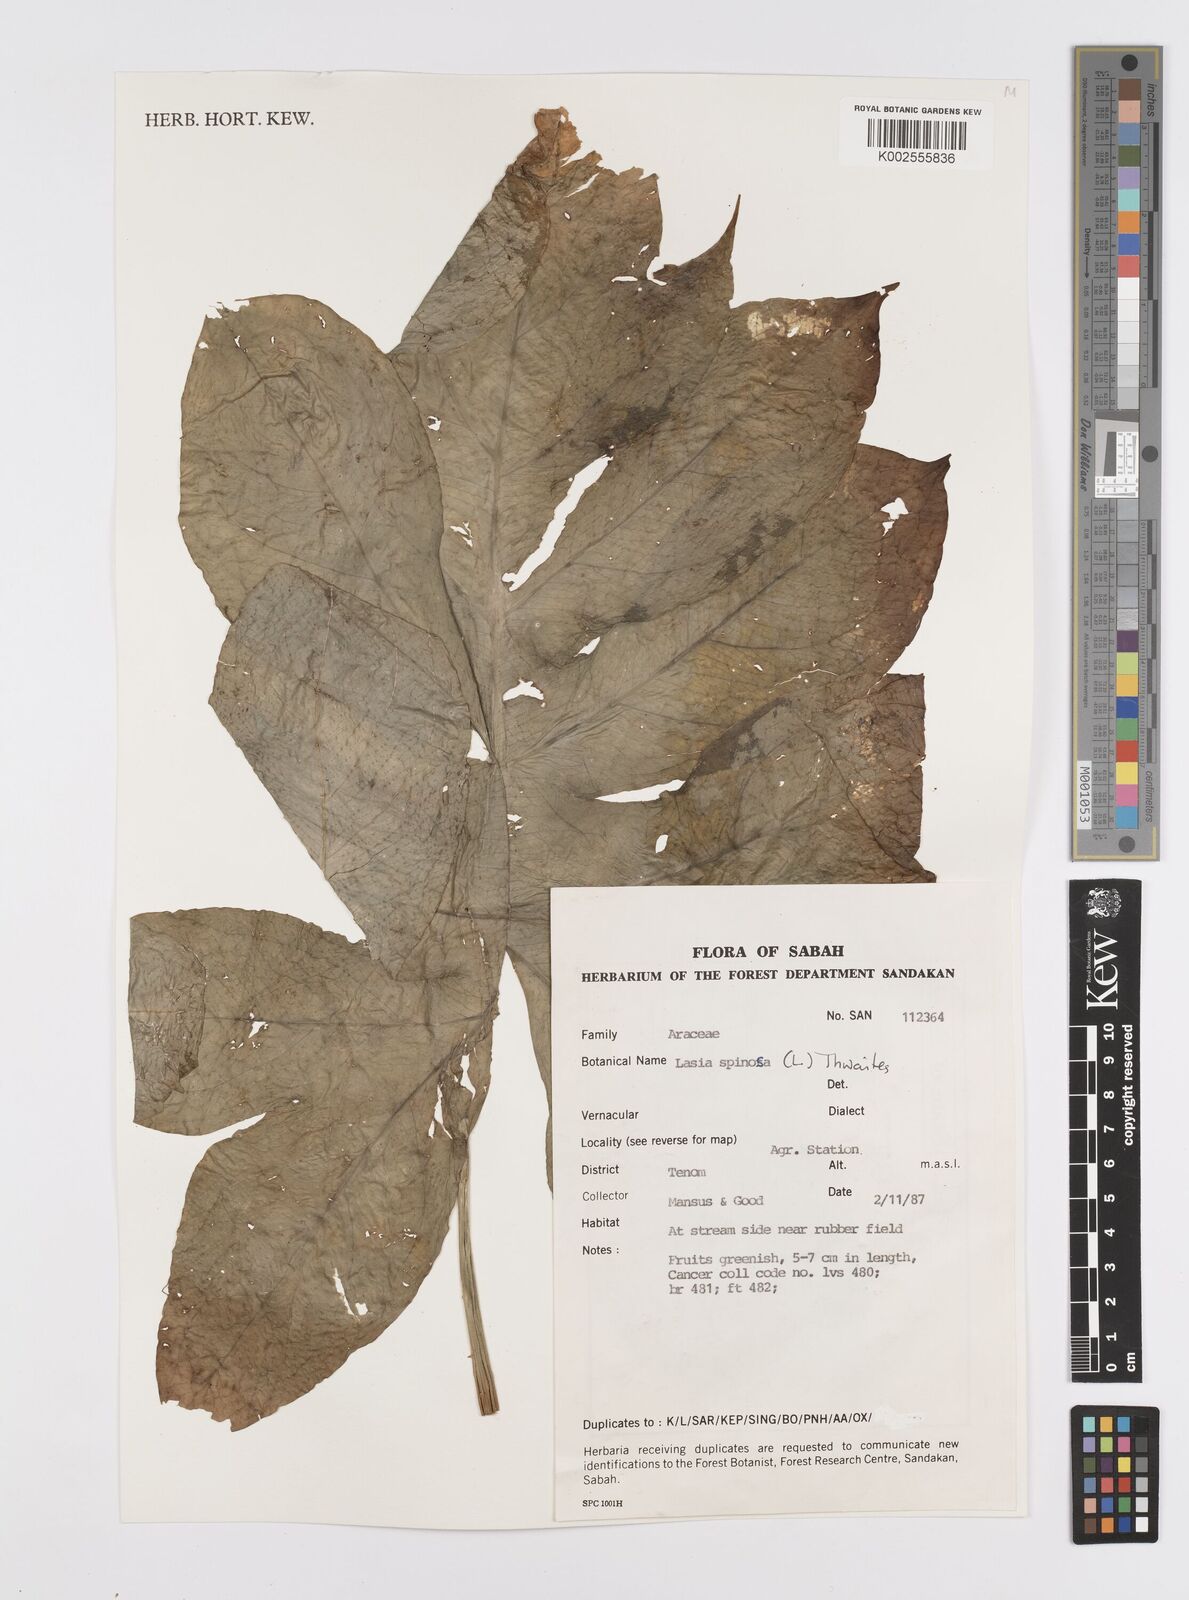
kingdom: Plantae
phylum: Tracheophyta
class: Liliopsida
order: Alismatales
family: Araceae
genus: Lasia
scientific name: Lasia spinosa
